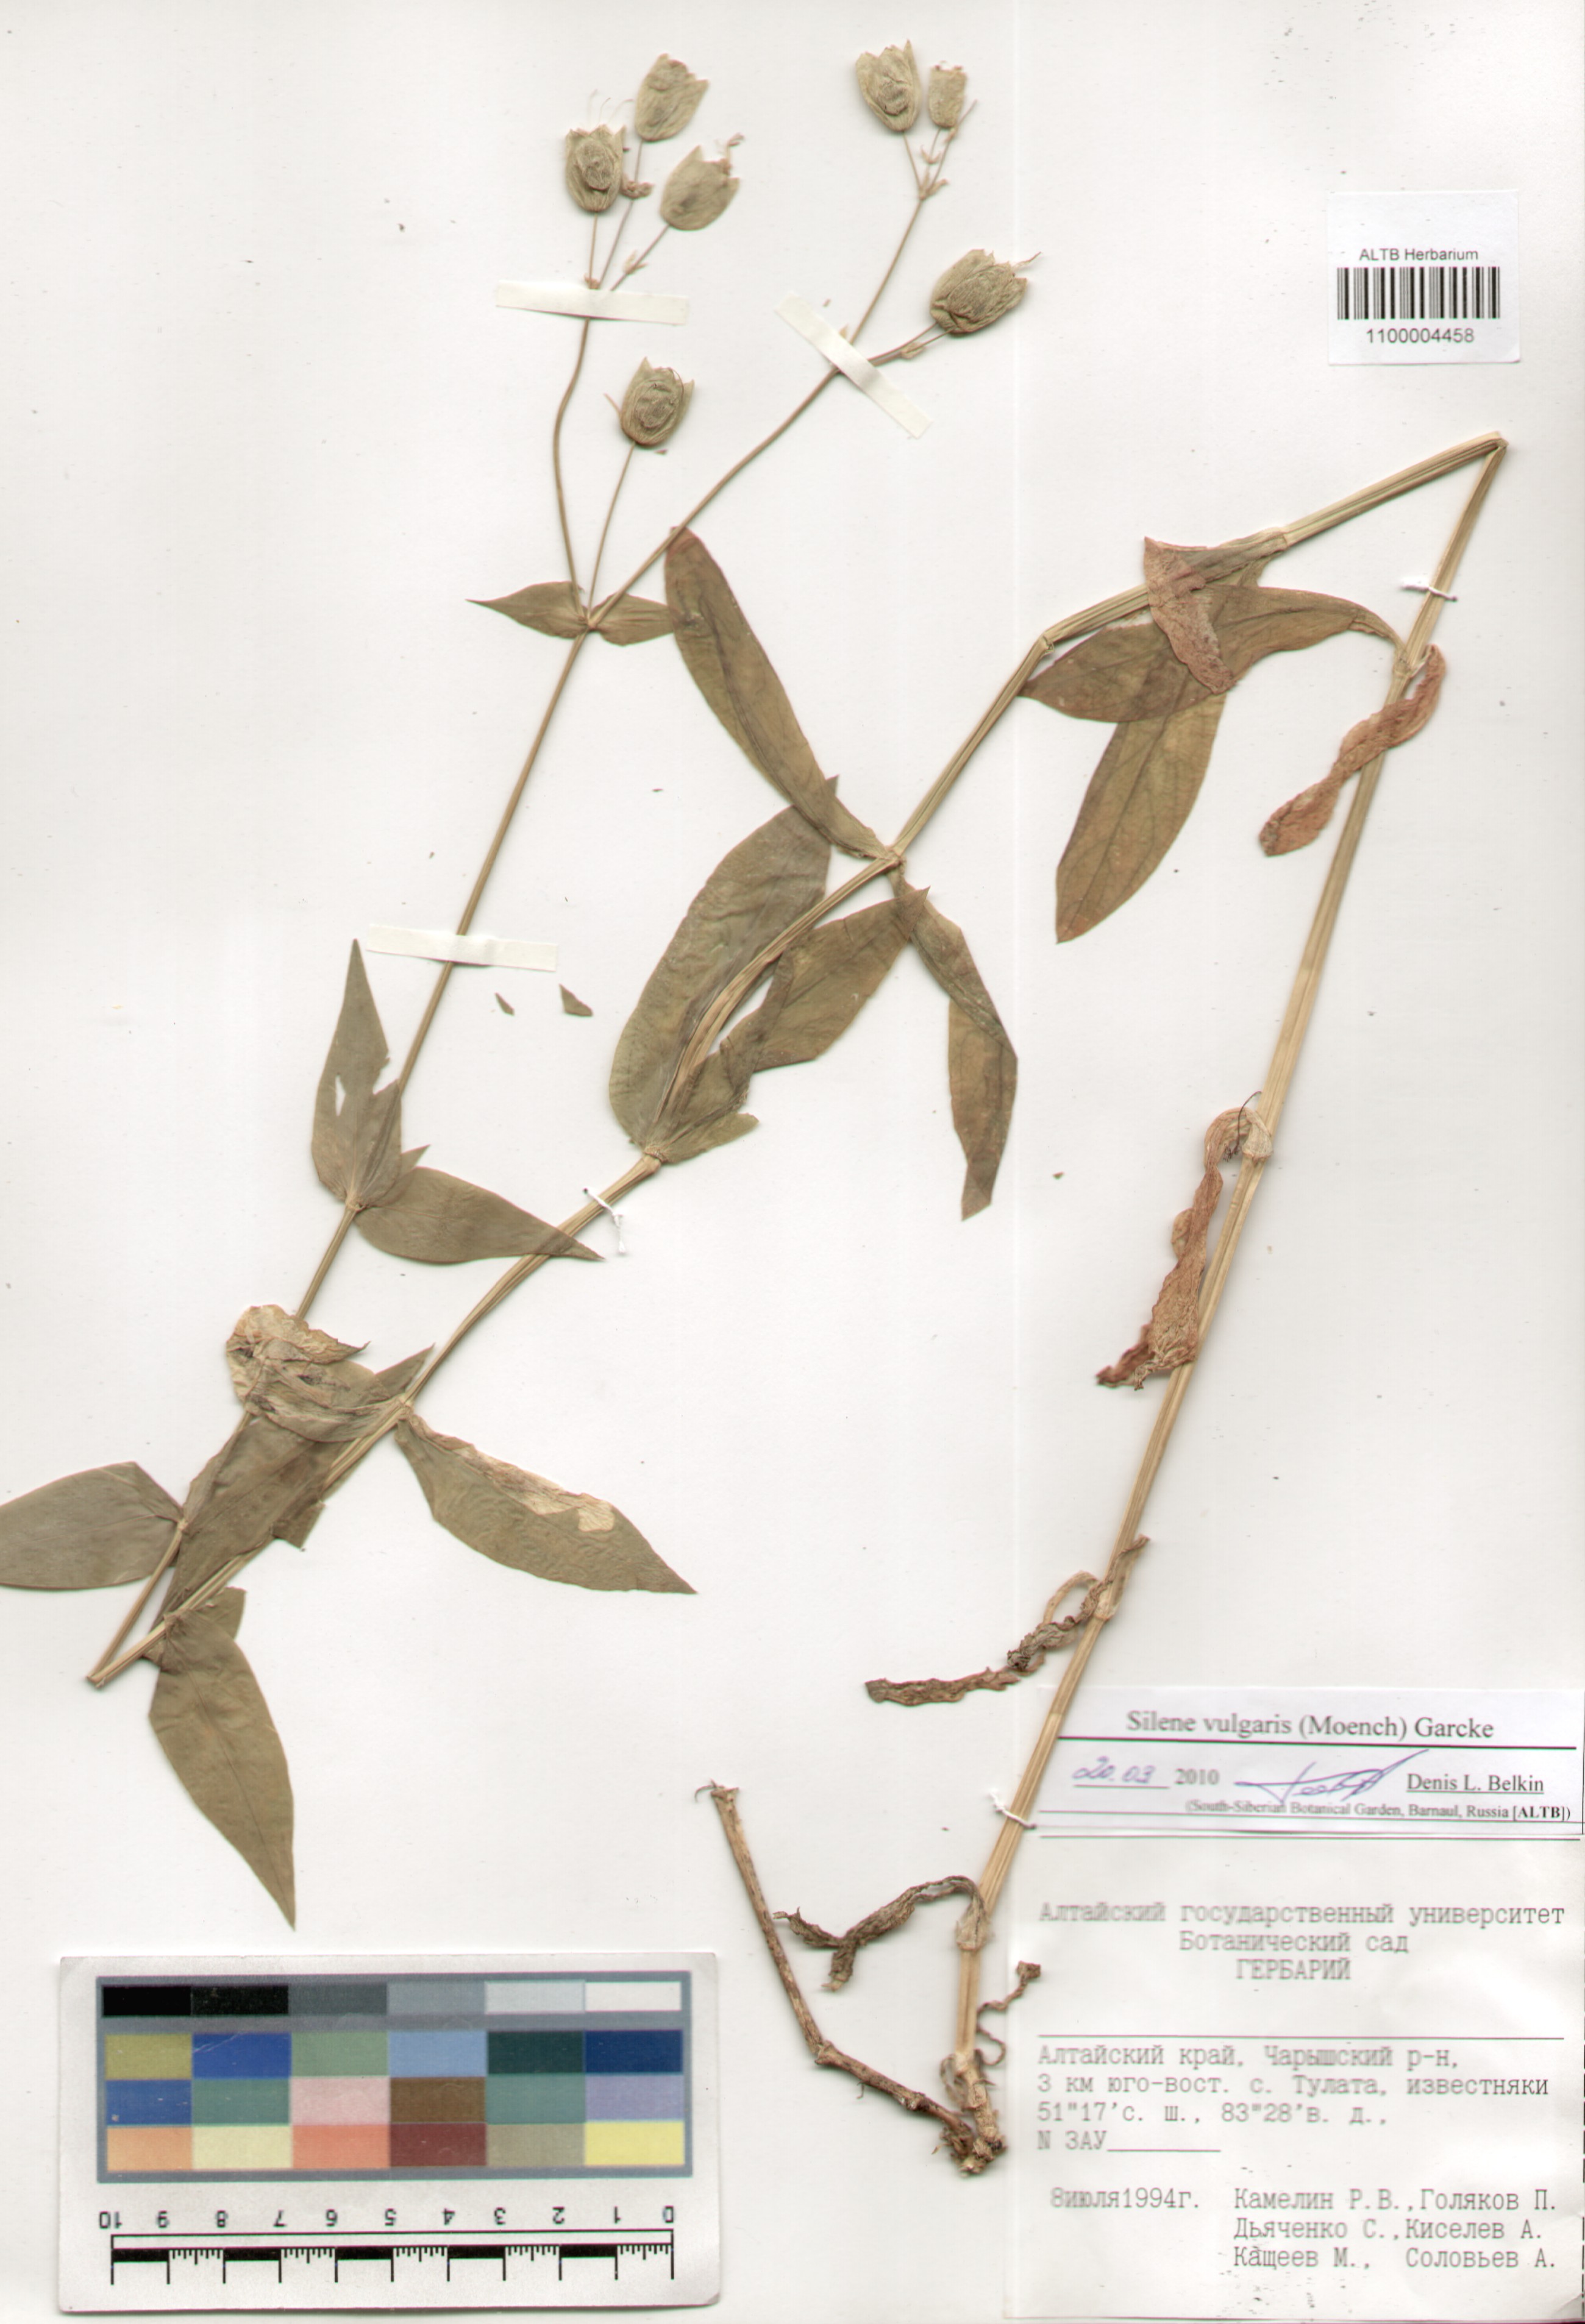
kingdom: Plantae
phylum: Tracheophyta
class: Magnoliopsida
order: Caryophyllales
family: Caryophyllaceae
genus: Silene
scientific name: Silene vulgaris
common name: Bladder campion
